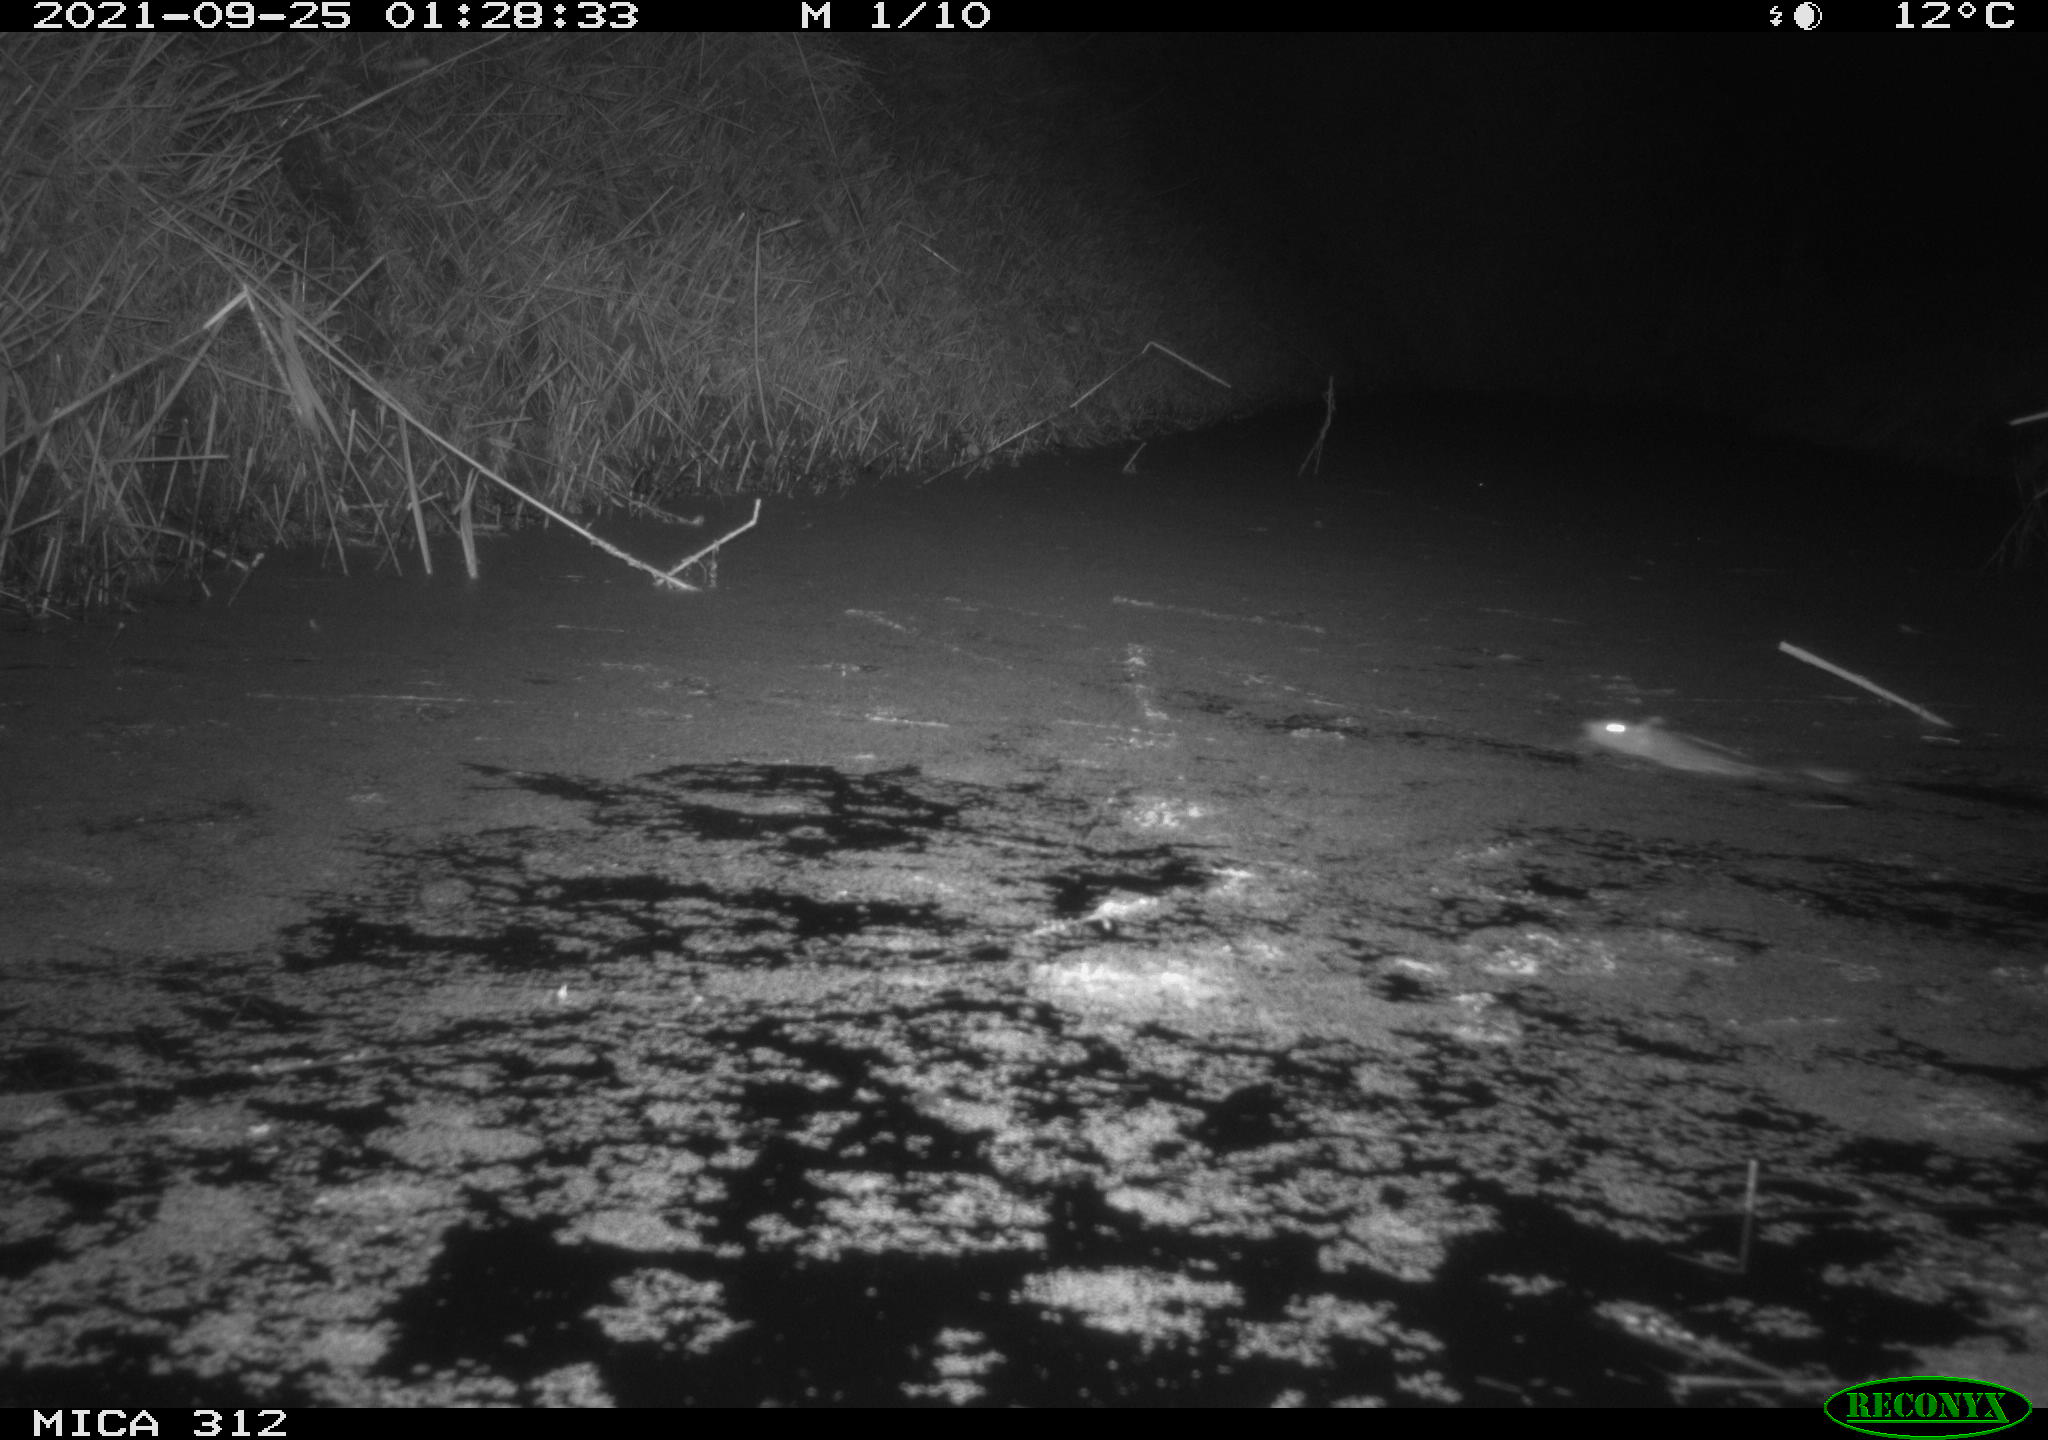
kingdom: Animalia
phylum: Chordata
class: Mammalia
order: Rodentia
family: Muridae
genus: Rattus
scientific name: Rattus norvegicus
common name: Brown rat
